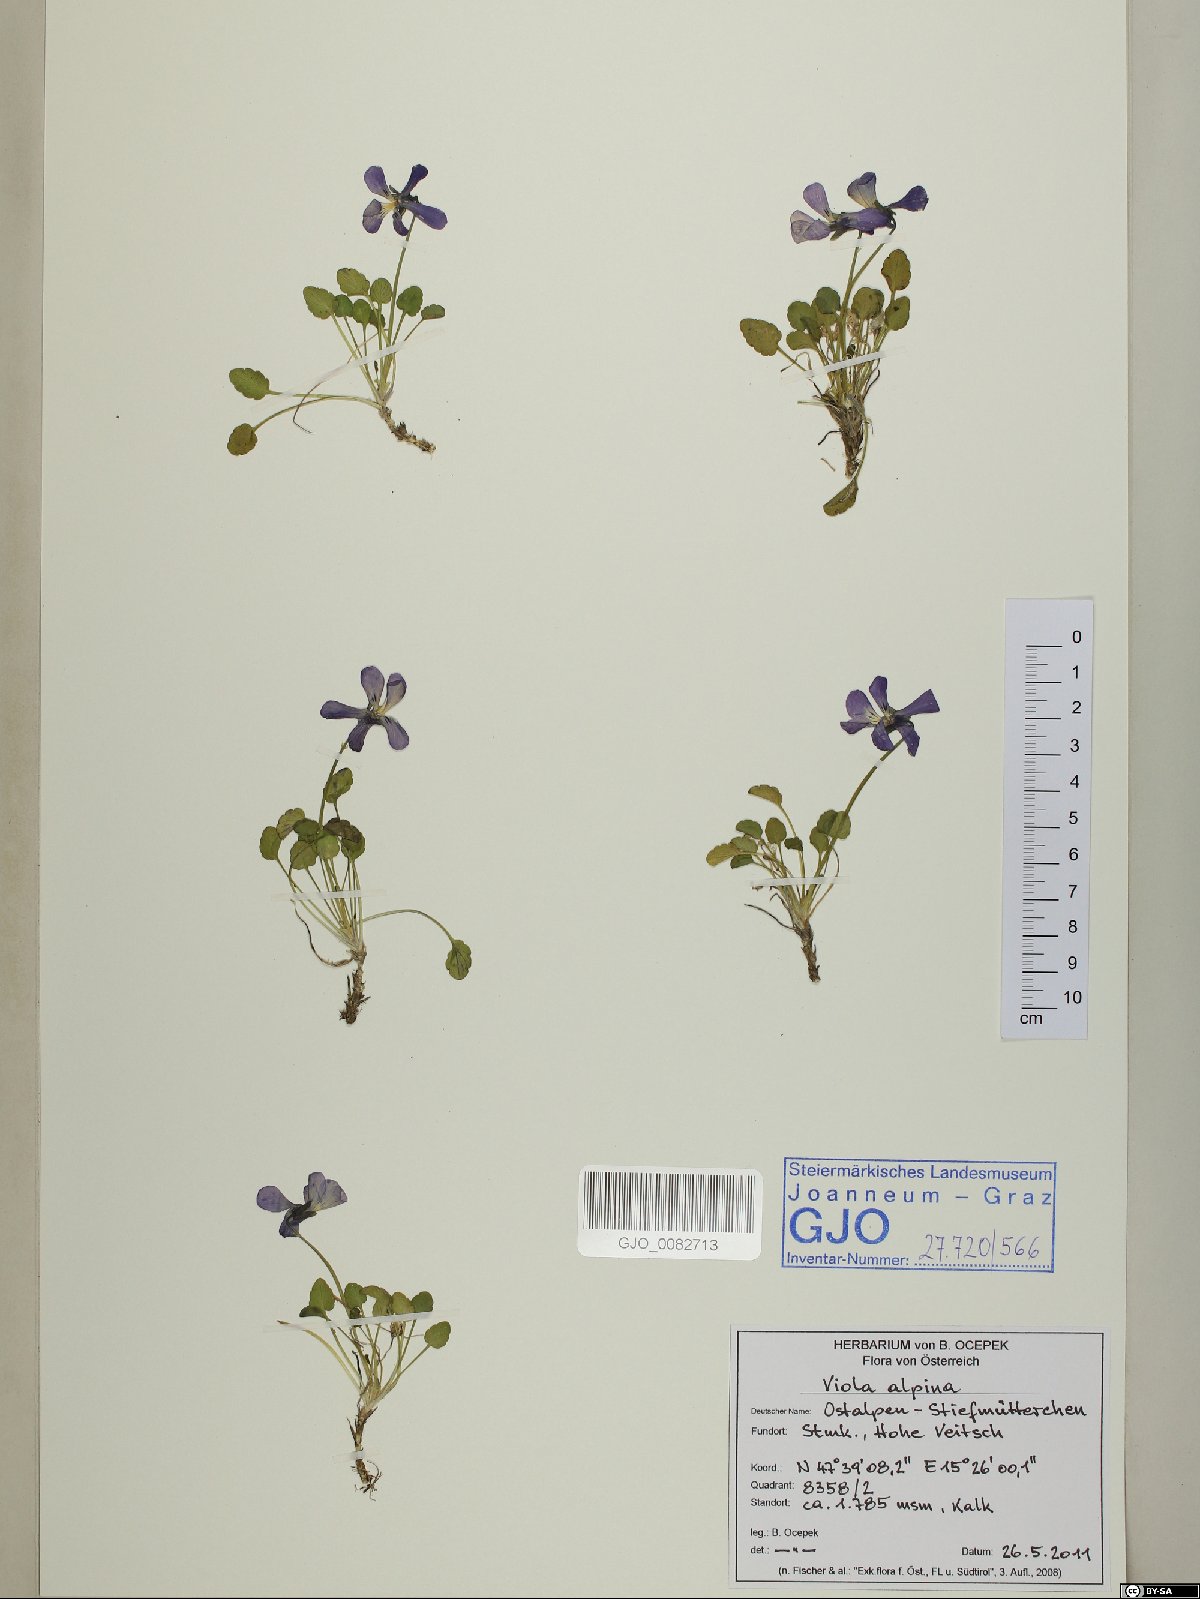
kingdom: Plantae
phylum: Tracheophyta
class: Magnoliopsida
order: Malpighiales
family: Violaceae
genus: Viola
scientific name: Viola alpina
